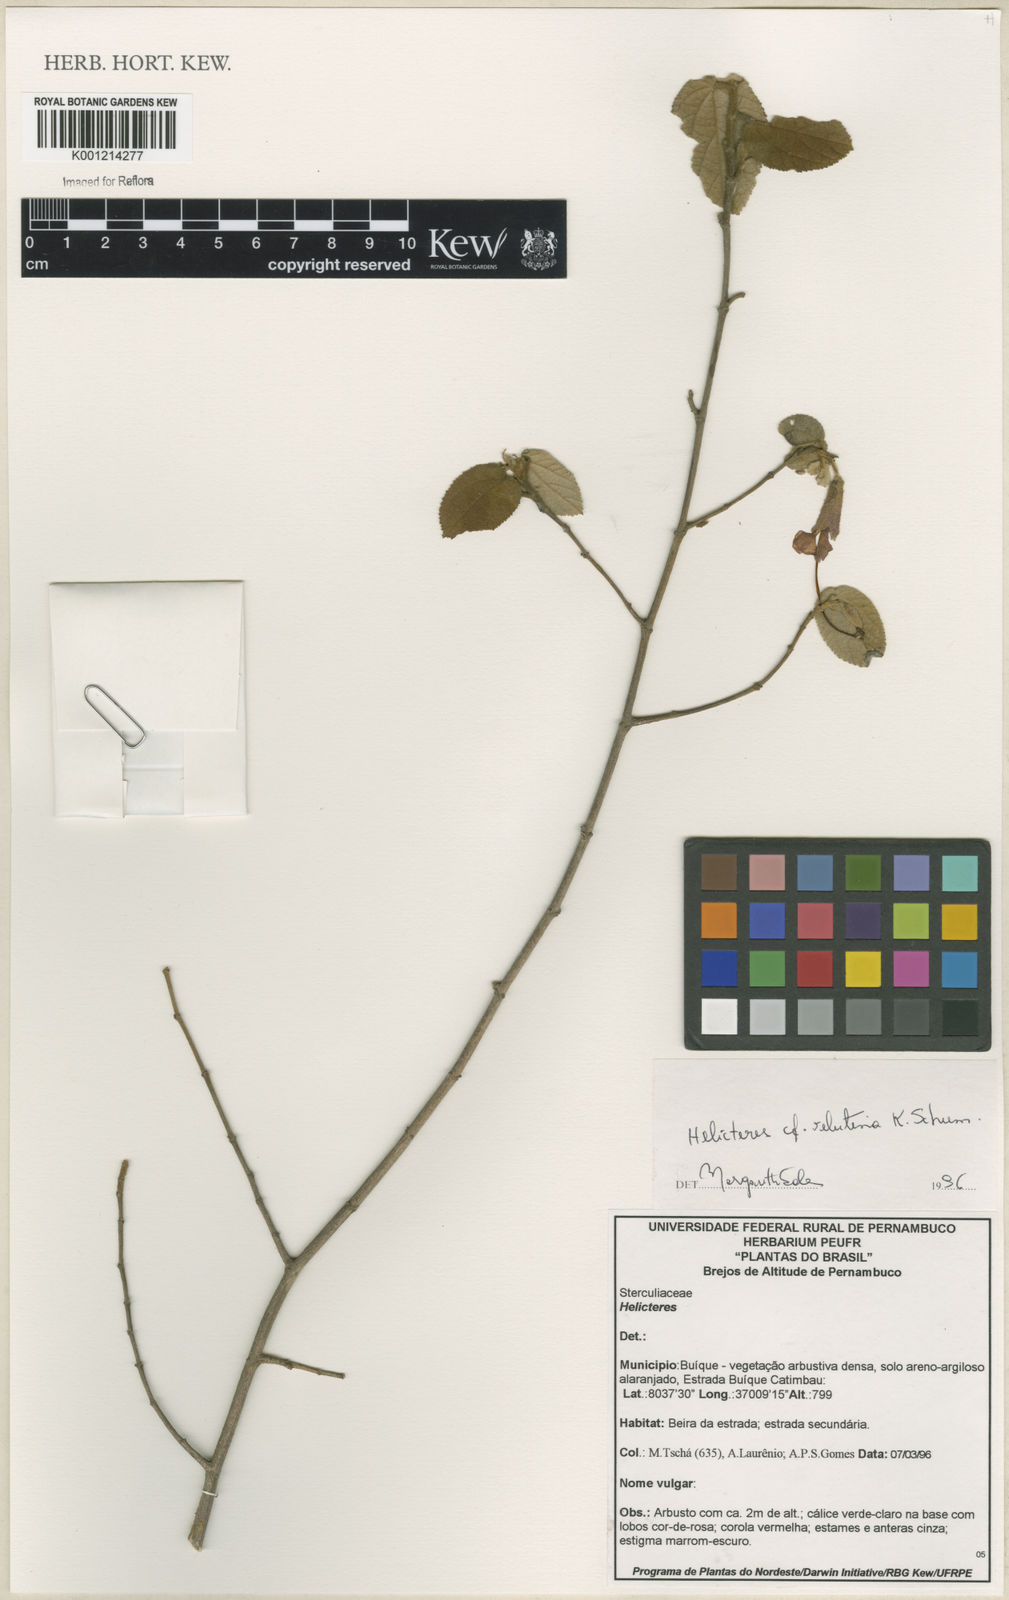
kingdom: Plantae
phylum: Tracheophyta
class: Magnoliopsida
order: Malvales
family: Malvaceae
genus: Helicteres
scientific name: Helicteres velutina
